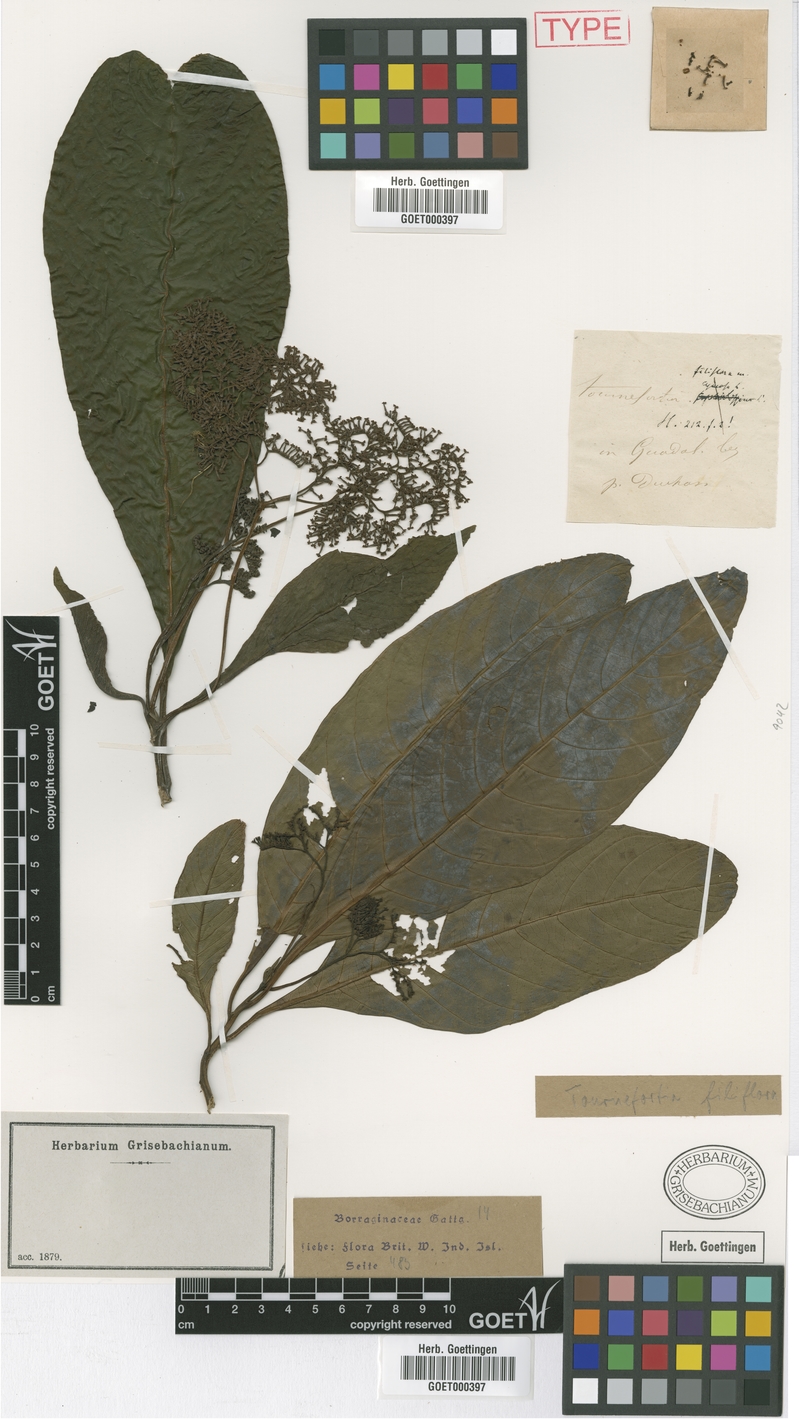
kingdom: Plantae
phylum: Tracheophyta
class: Magnoliopsida
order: Boraginales
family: Heliotropiaceae
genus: Heliotropium
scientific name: Heliotropium filiflorum
